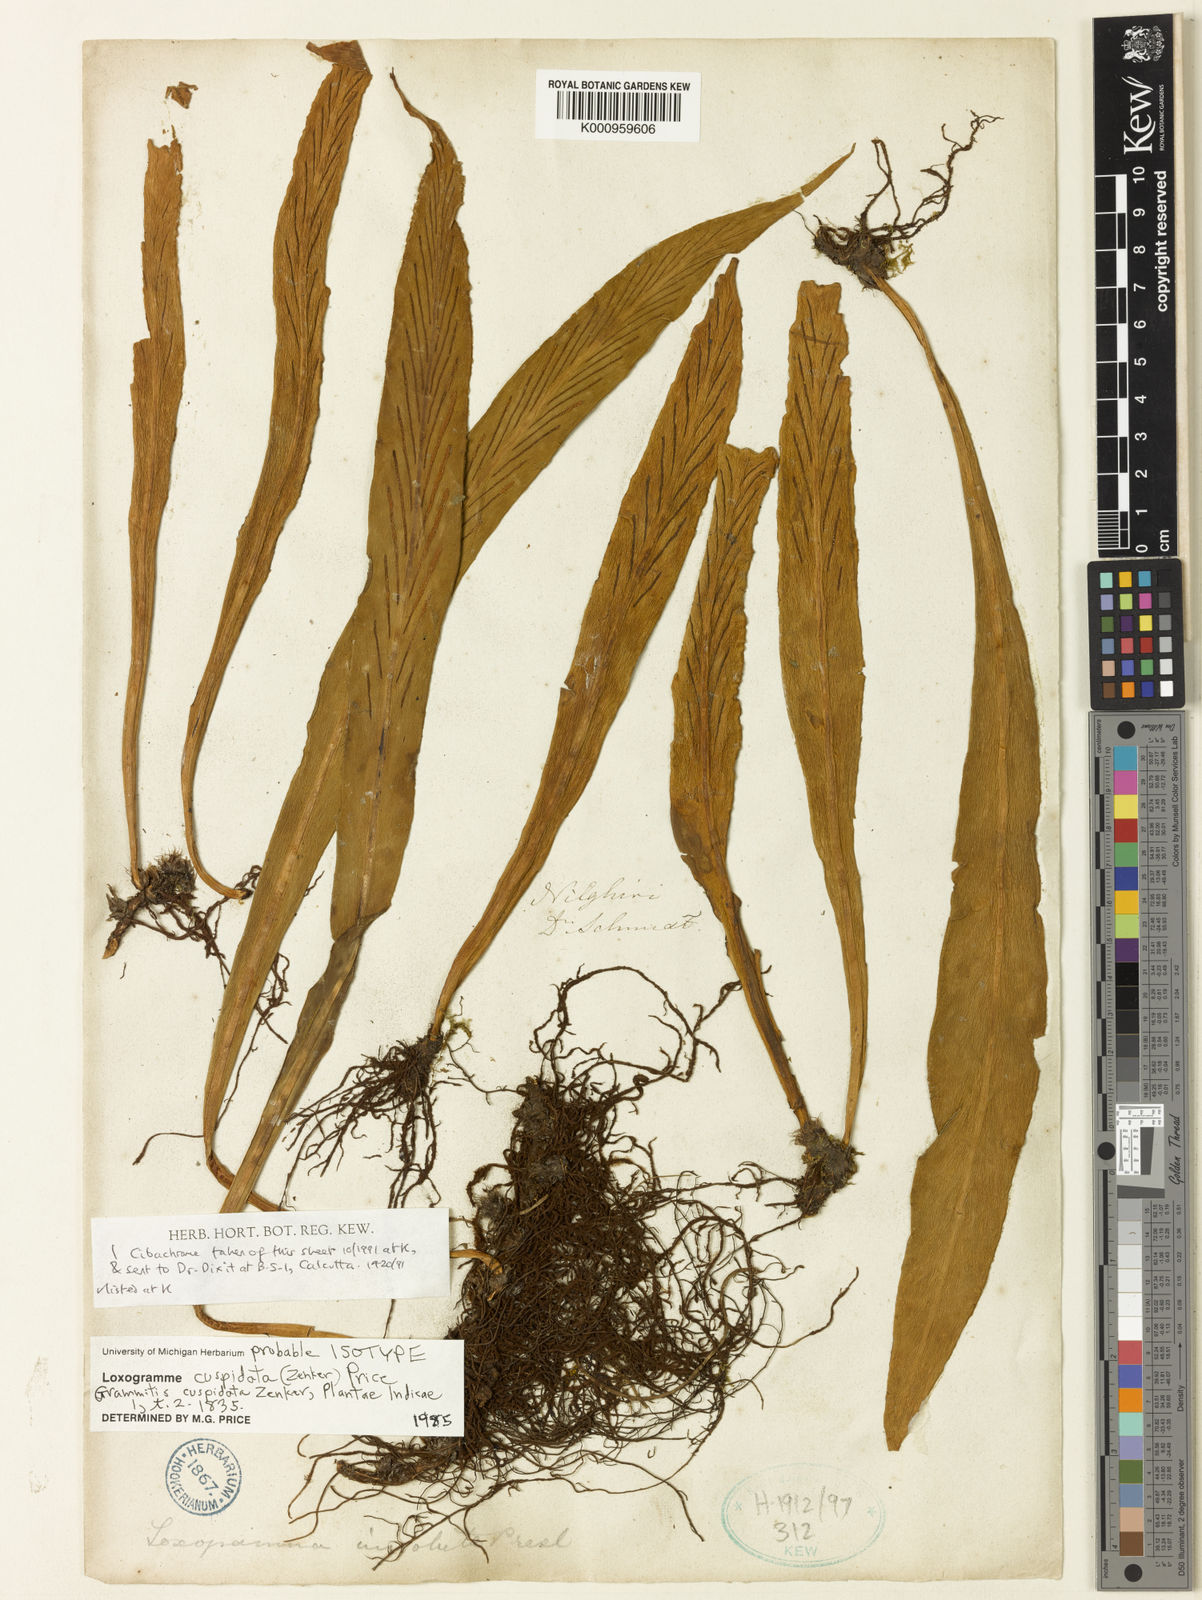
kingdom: Plantae
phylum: Tracheophyta
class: Polypodiopsida
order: Polypodiales
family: Polypodiaceae
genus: Loxogramme
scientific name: Loxogramme cuspidata
